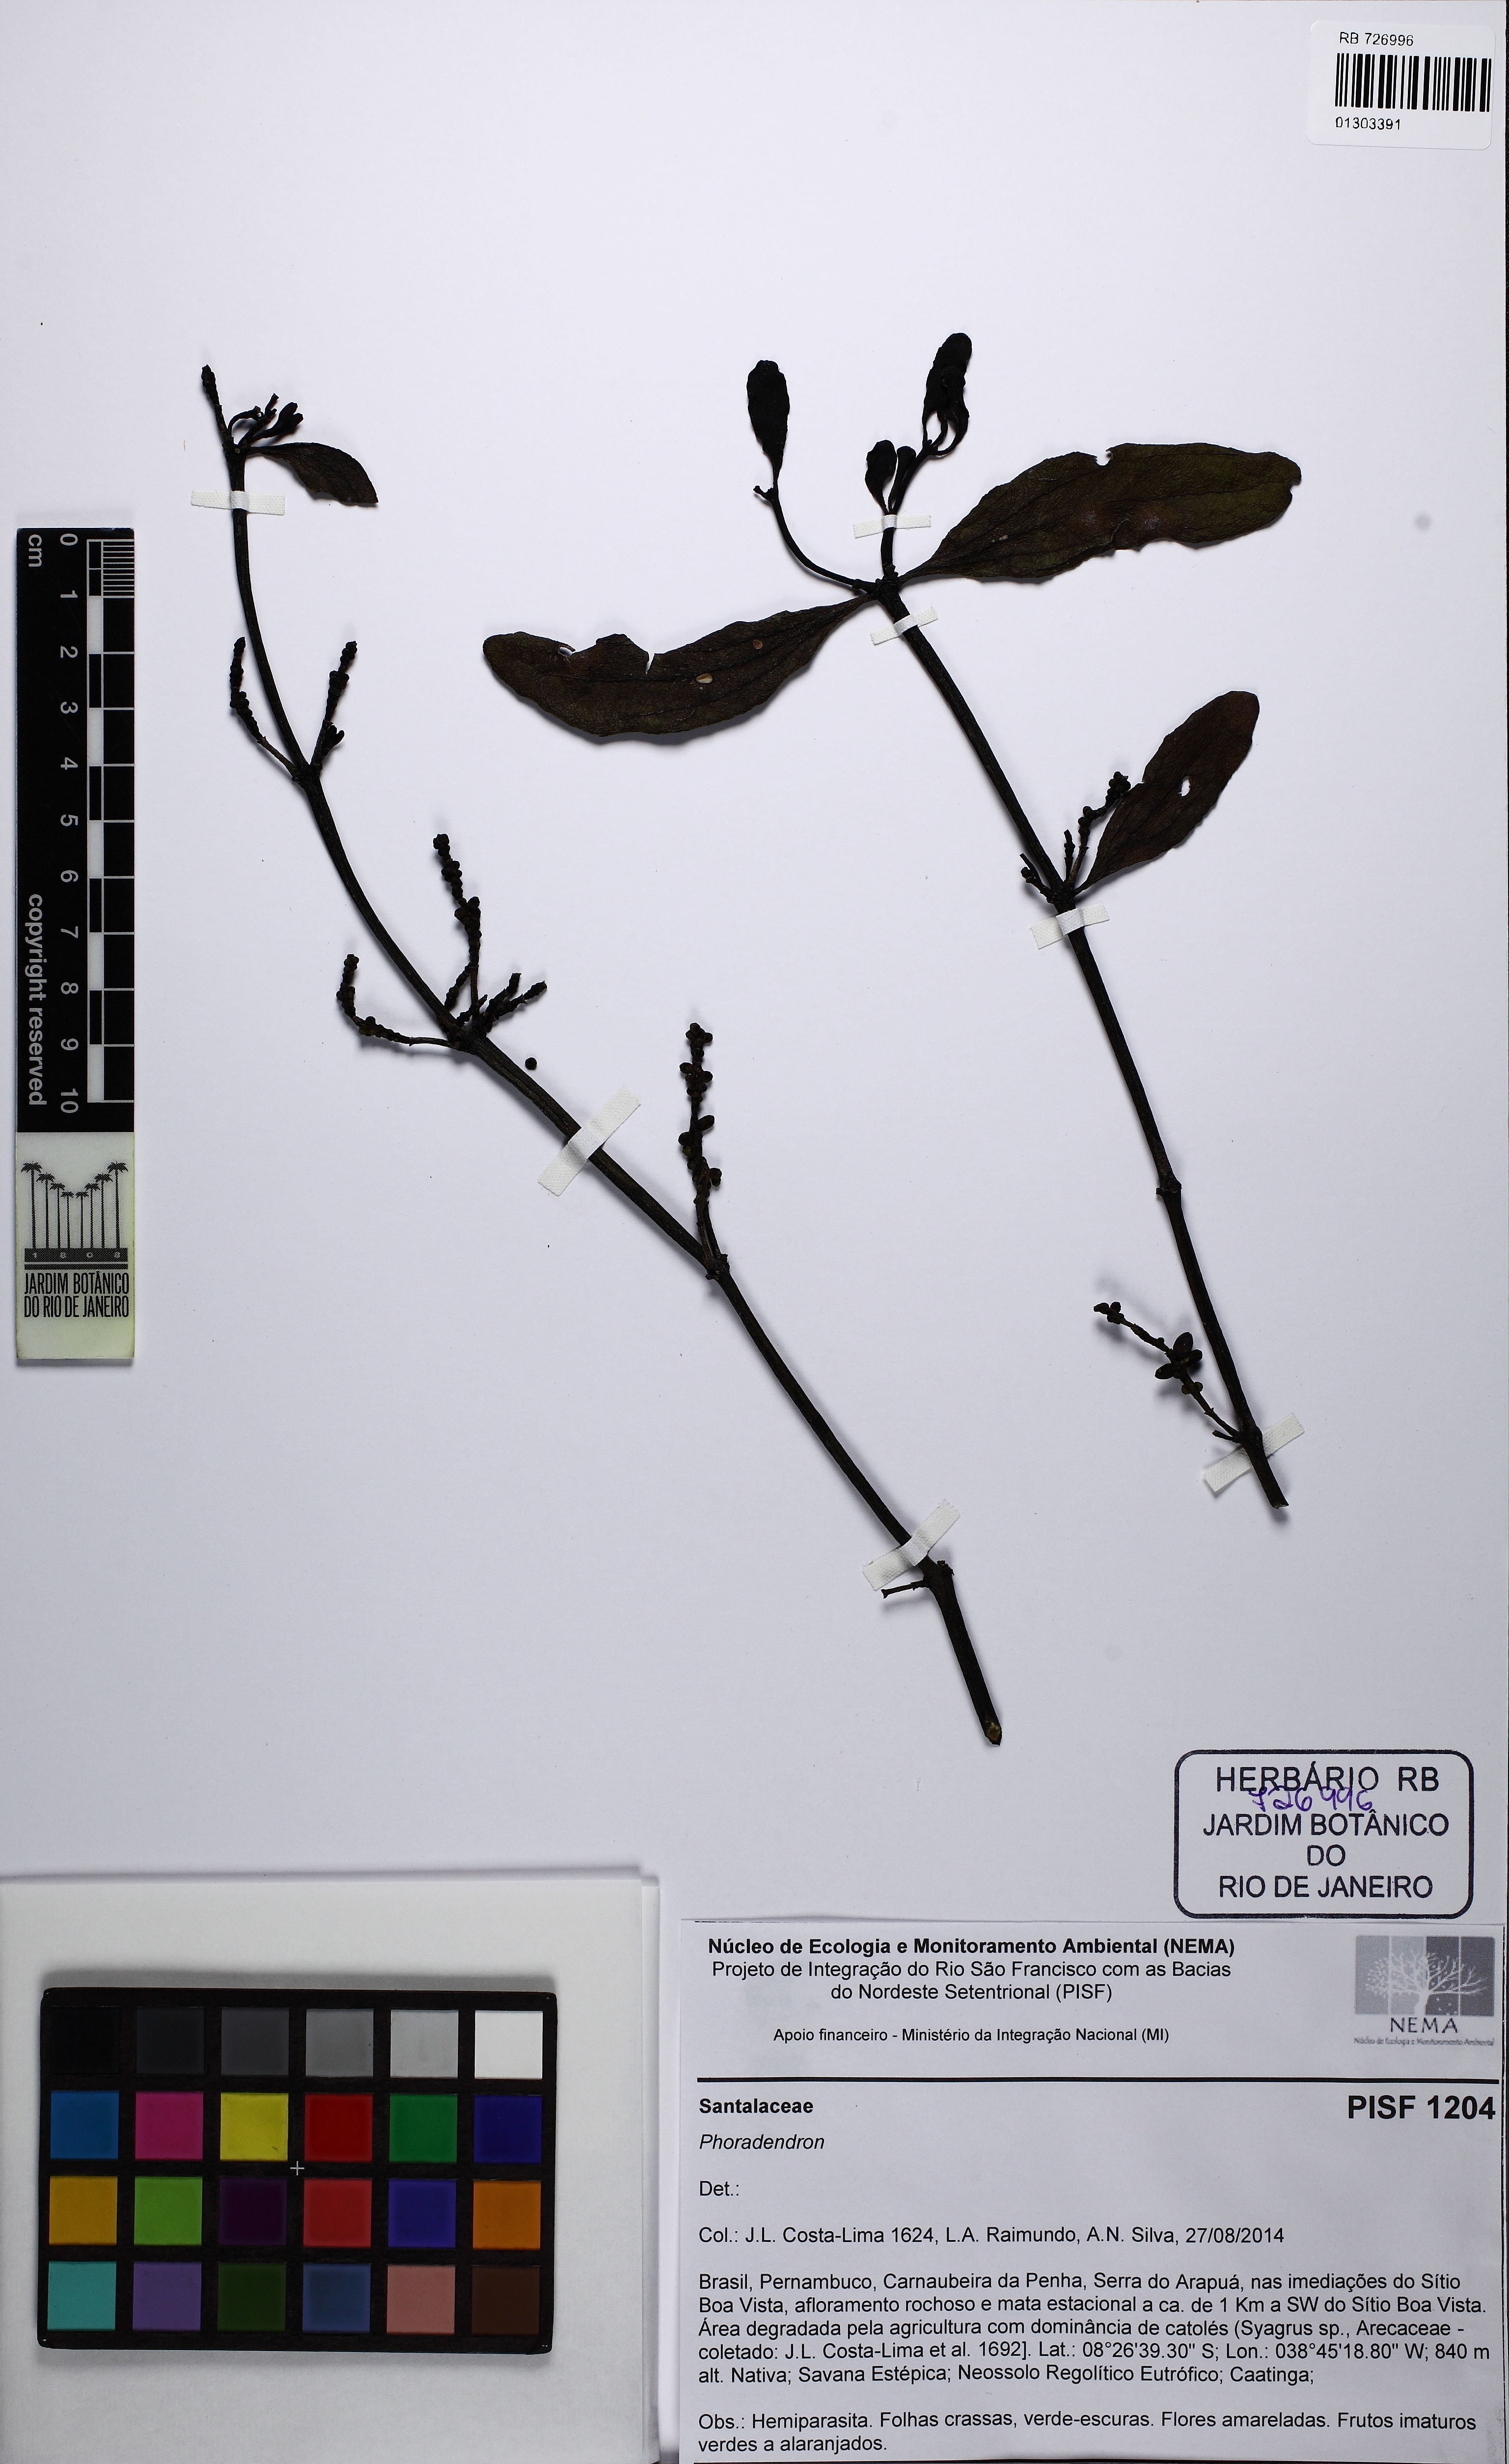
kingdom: Plantae
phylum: Tracheophyta
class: Magnoliopsida
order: Santalales
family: Viscaceae
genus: Phoradendron
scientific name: Phoradendron quadrangulare
